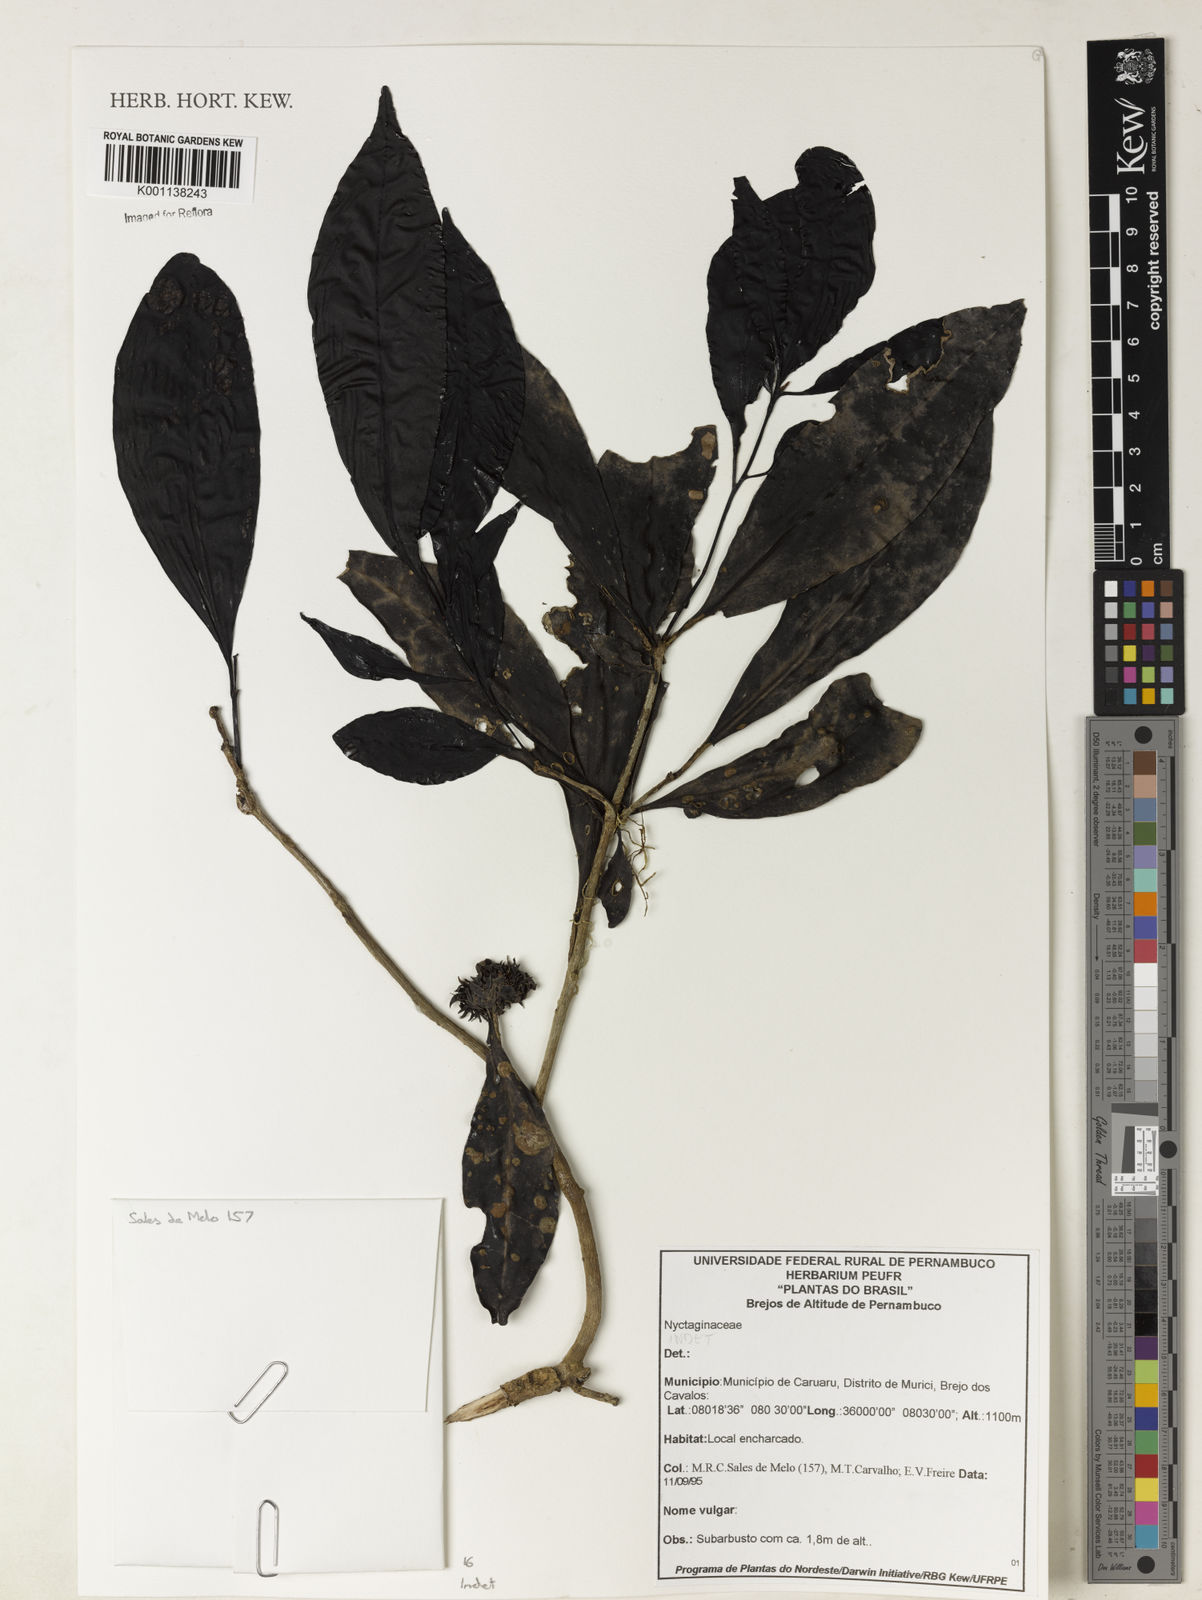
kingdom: Plantae
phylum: Tracheophyta
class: Magnoliopsida
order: Caryophyllales
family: Nyctaginaceae
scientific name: Nyctaginaceae
